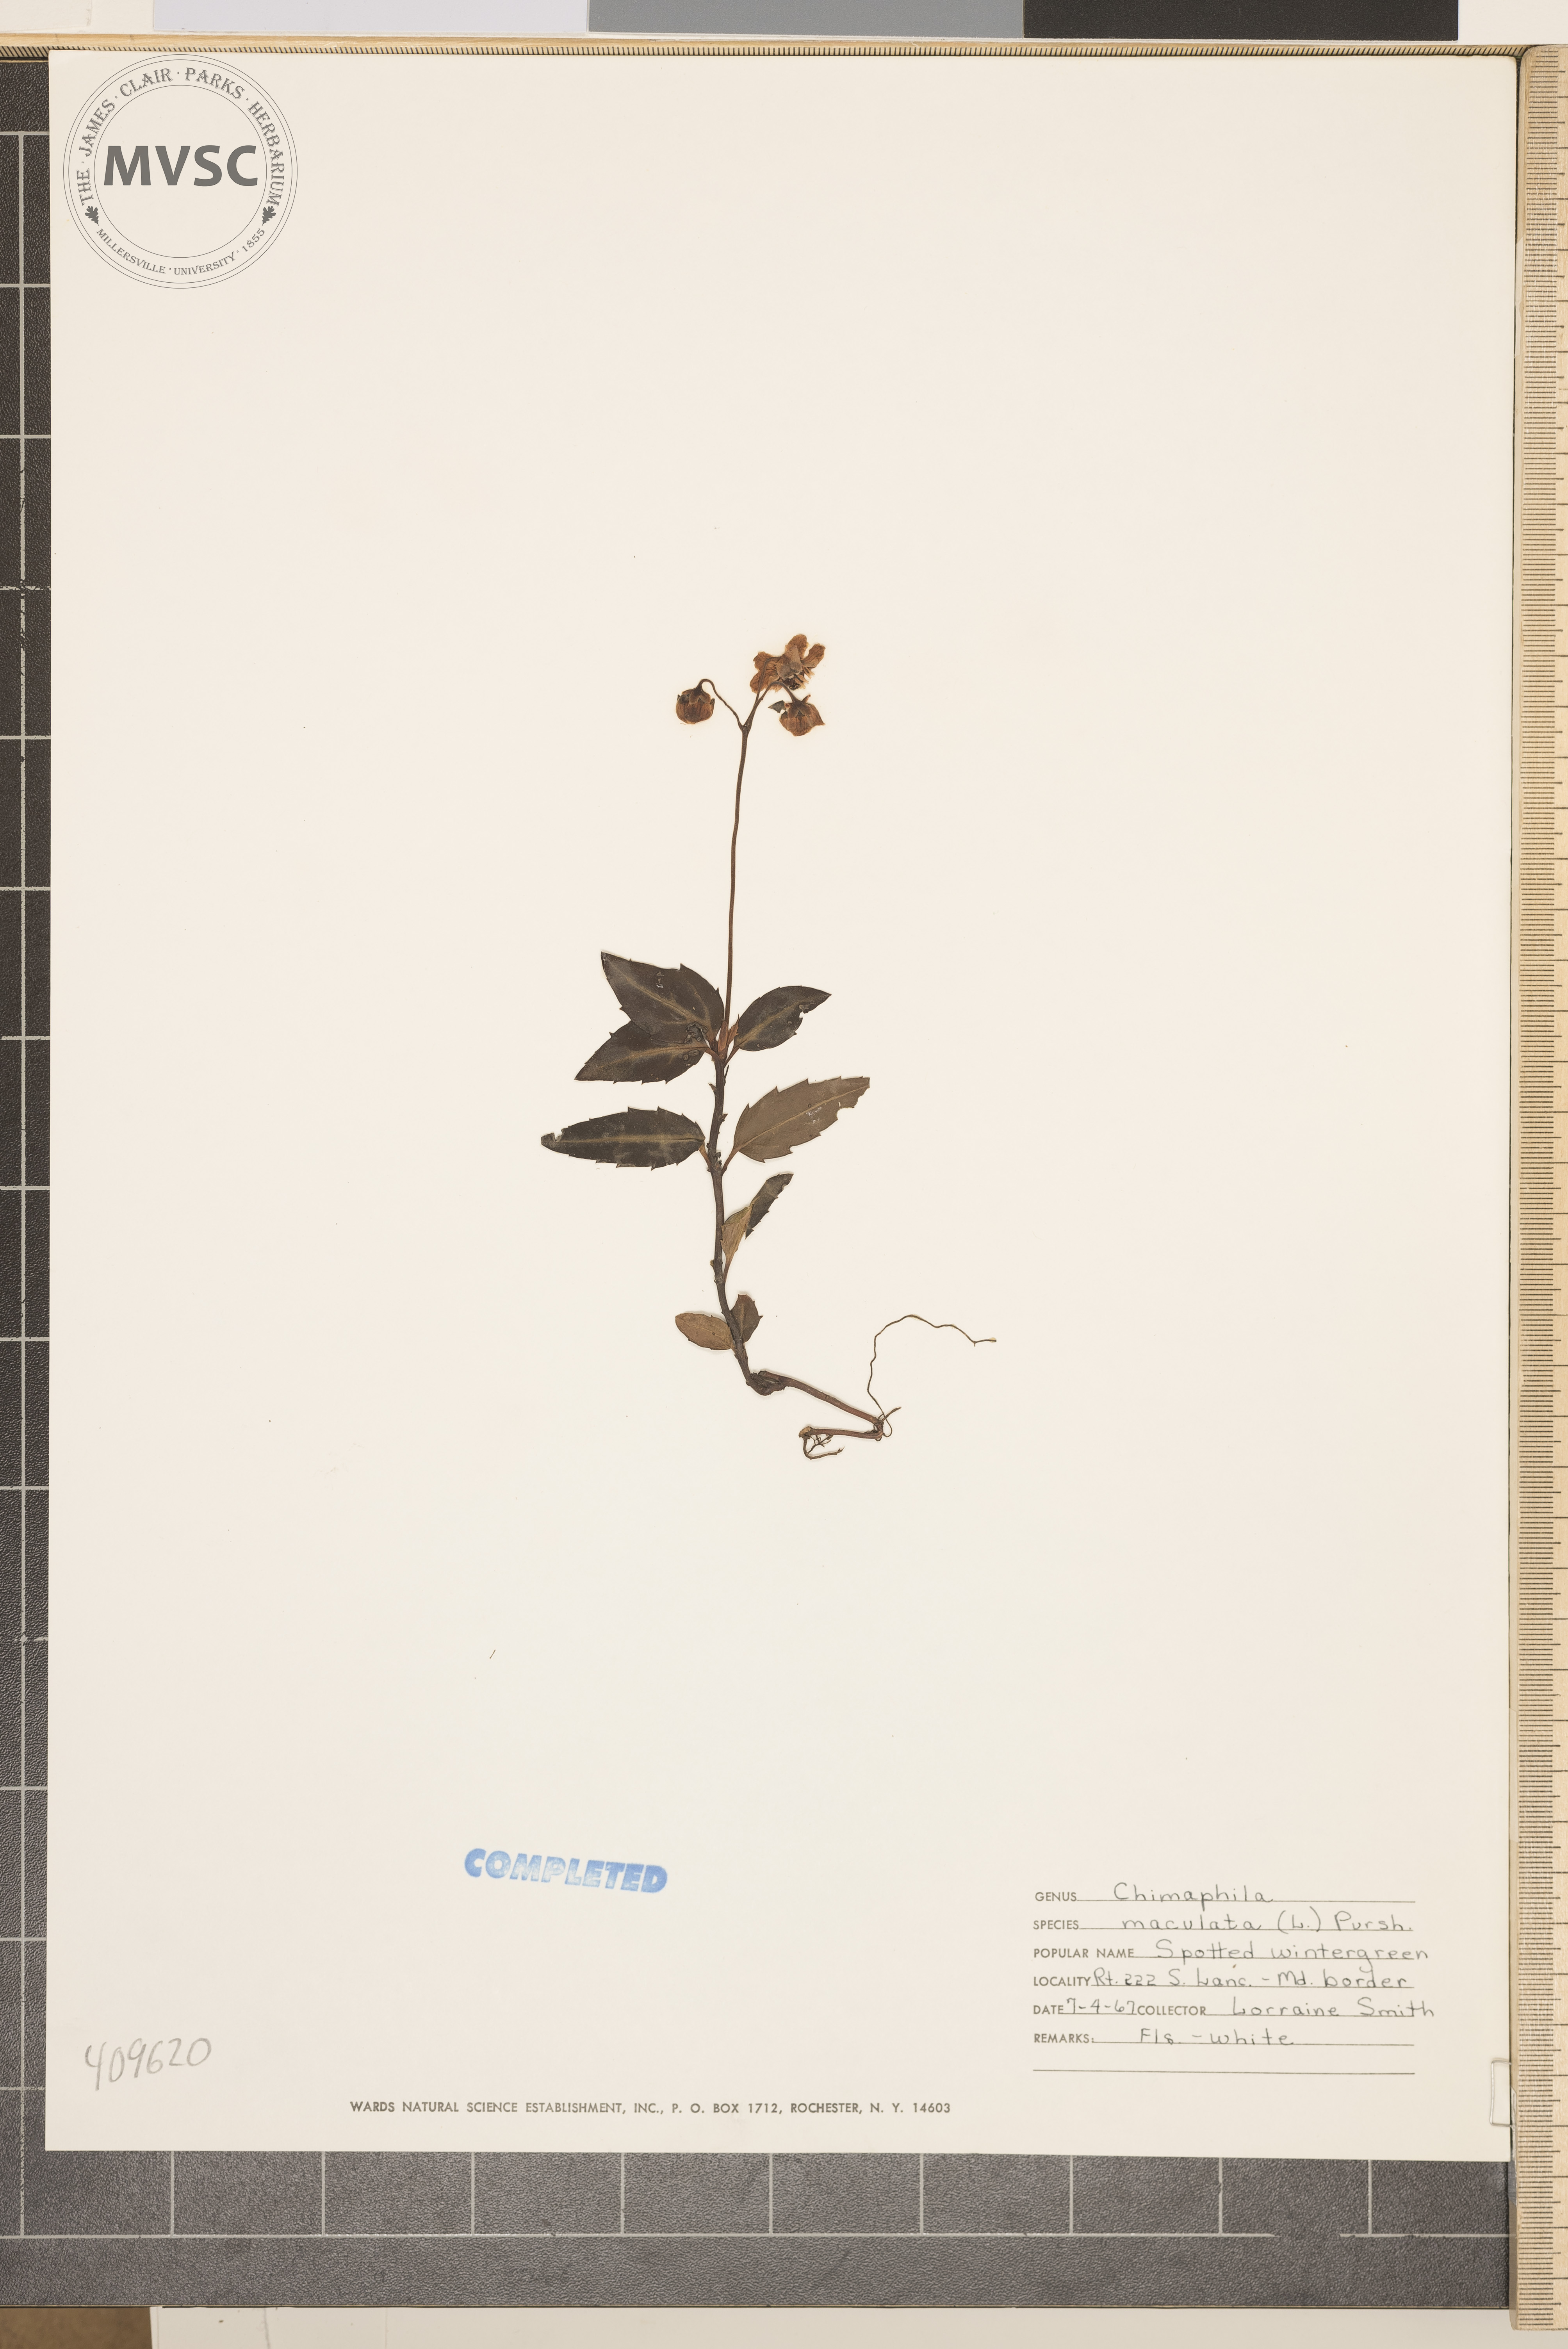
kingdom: Plantae
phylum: Tracheophyta
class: Magnoliopsida
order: Ericales
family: Ericaceae
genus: Chimaphila
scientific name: Chimaphila maculata
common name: Spotted pipsissewa
